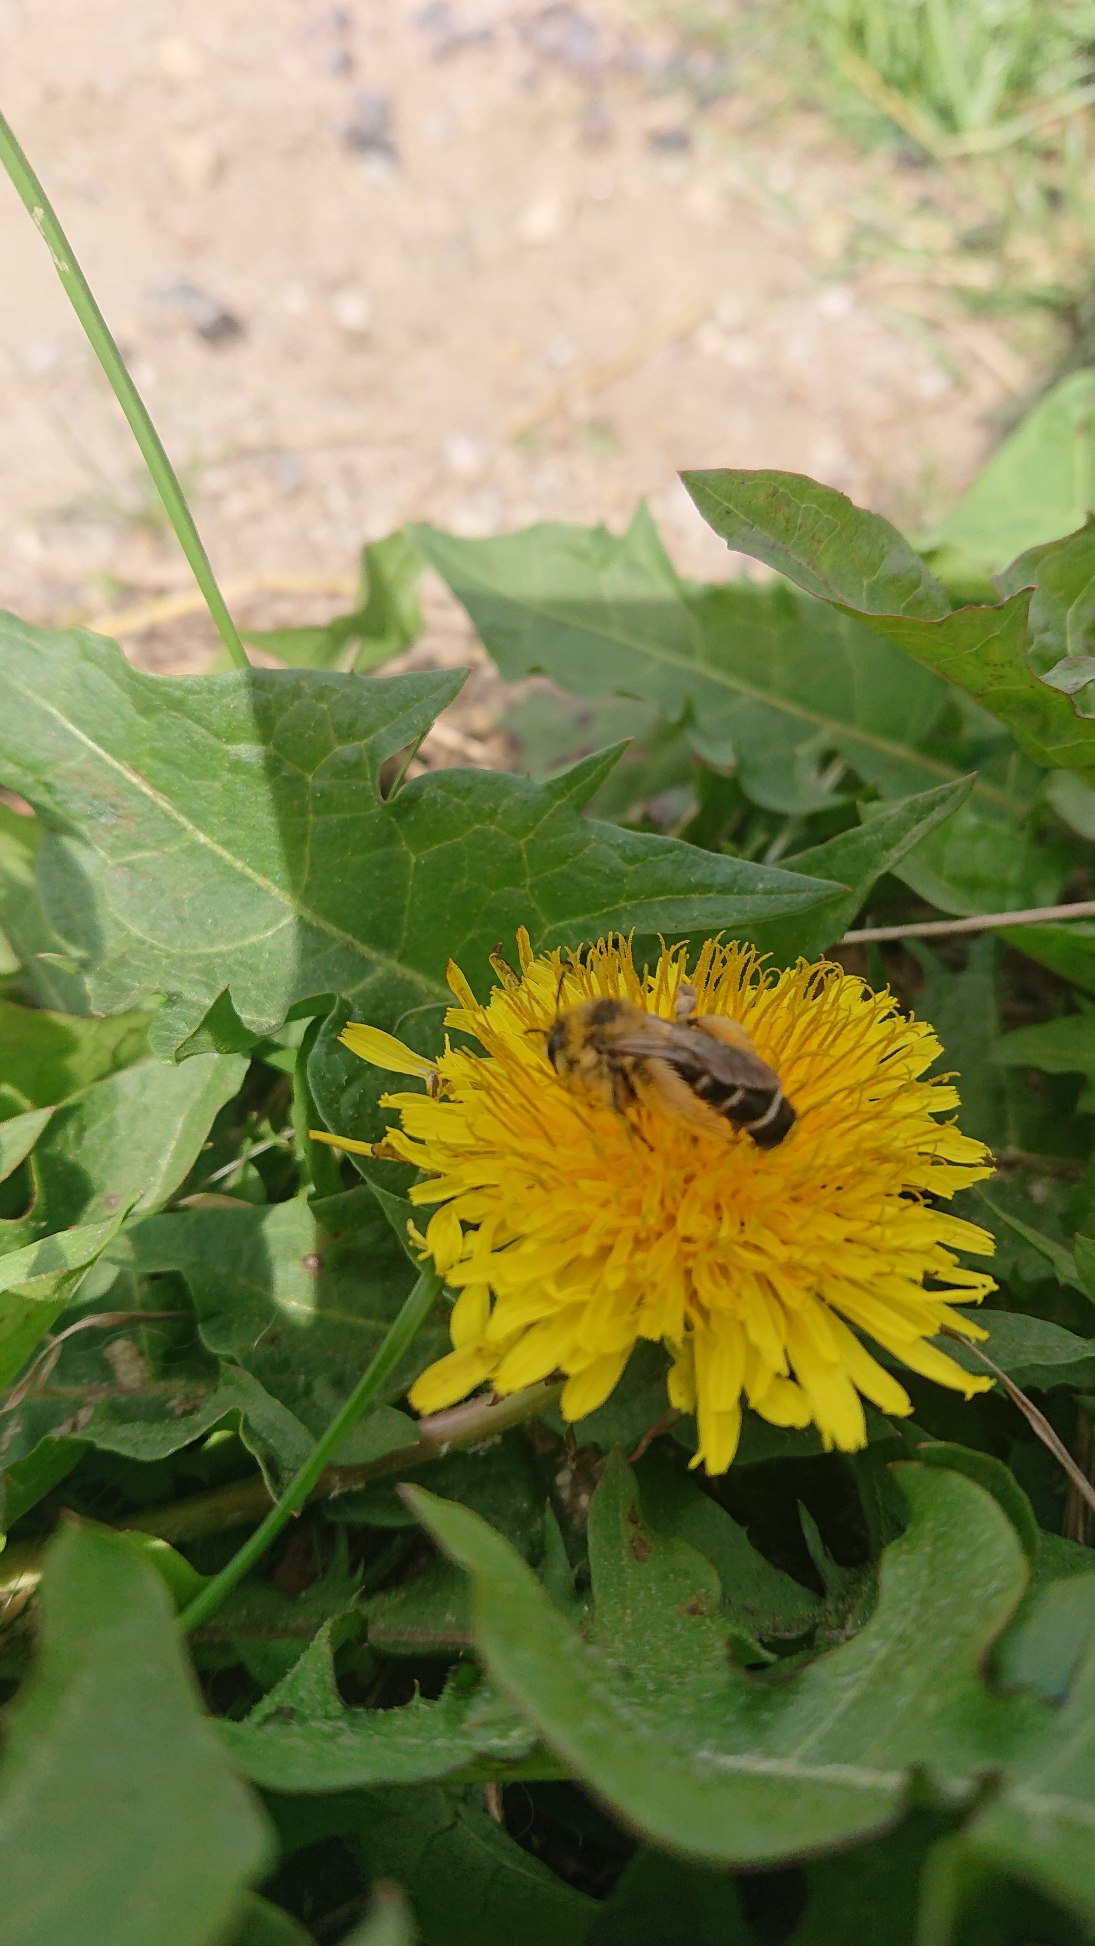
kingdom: Animalia
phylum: Arthropoda
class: Insecta
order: Hymenoptera
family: Melittidae
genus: Dasypoda
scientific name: Dasypoda hirtipes
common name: Pragtbuksebi
